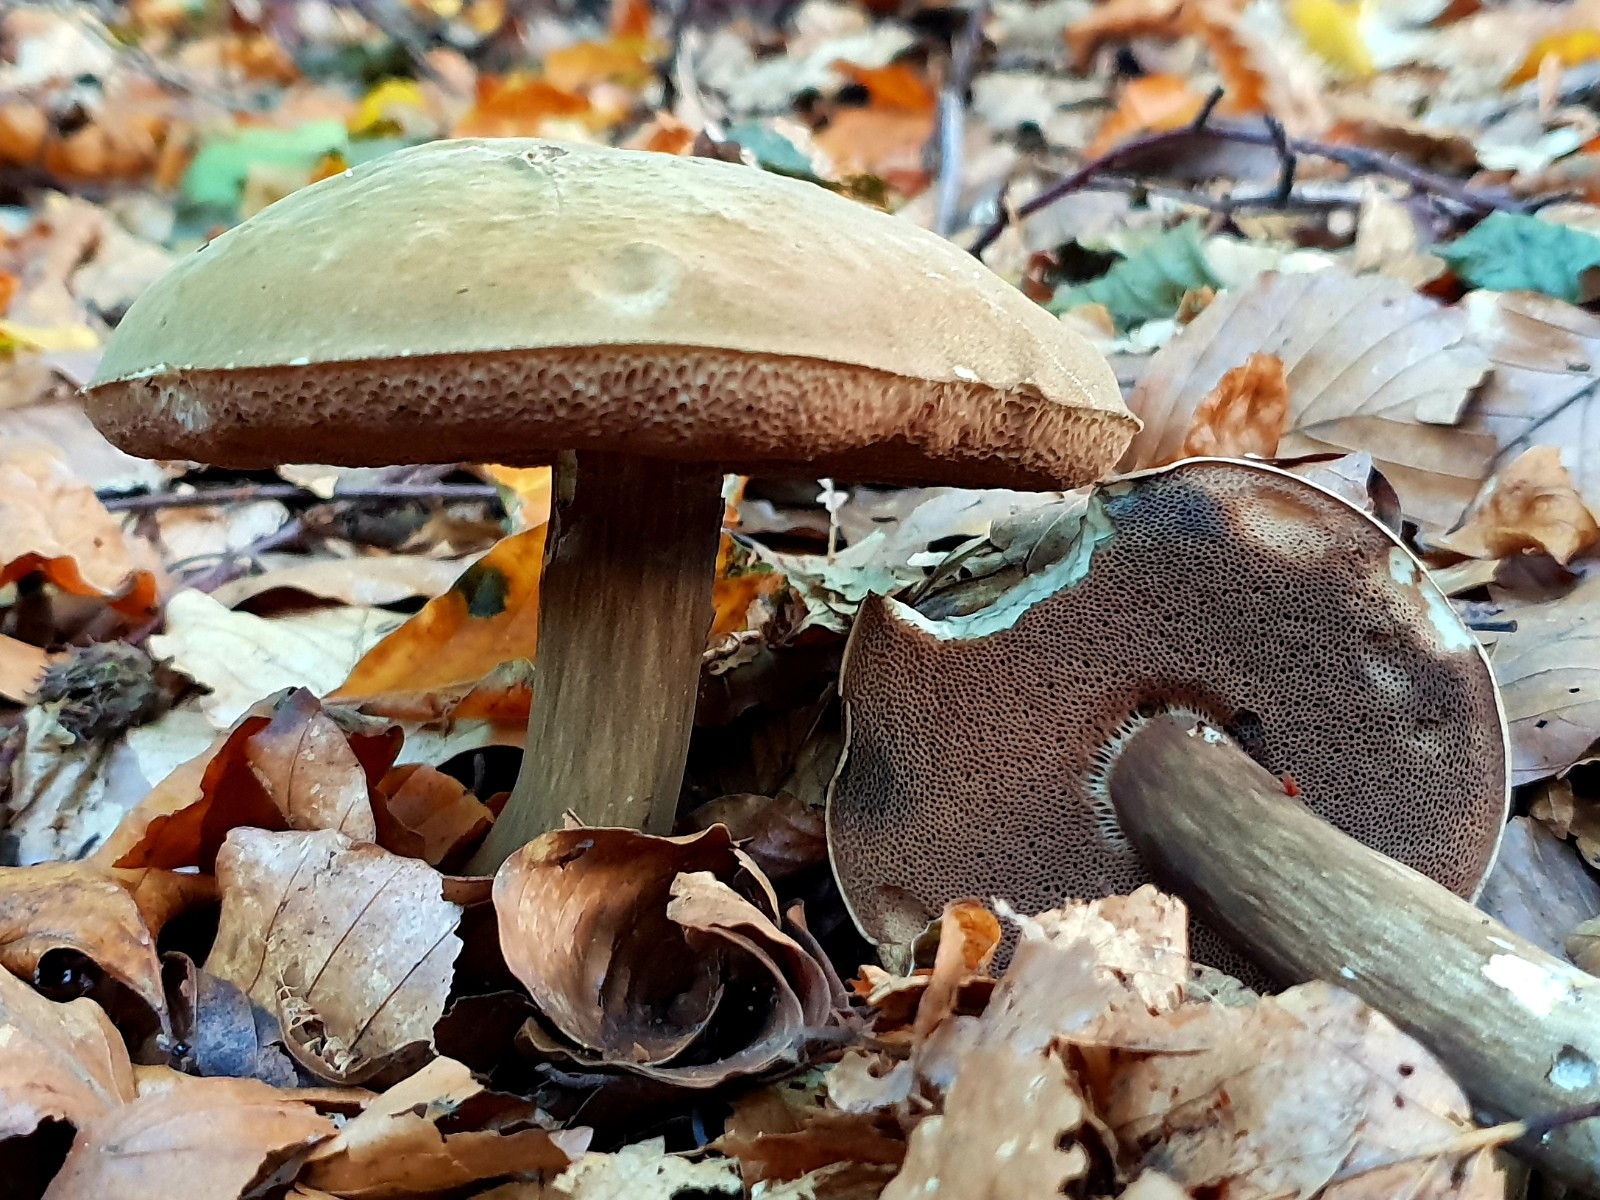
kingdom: Fungi
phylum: Basidiomycota
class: Agaricomycetes
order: Boletales
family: Boletaceae
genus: Porphyrellus
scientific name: Porphyrellus porphyrosporus
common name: sodrørhat
